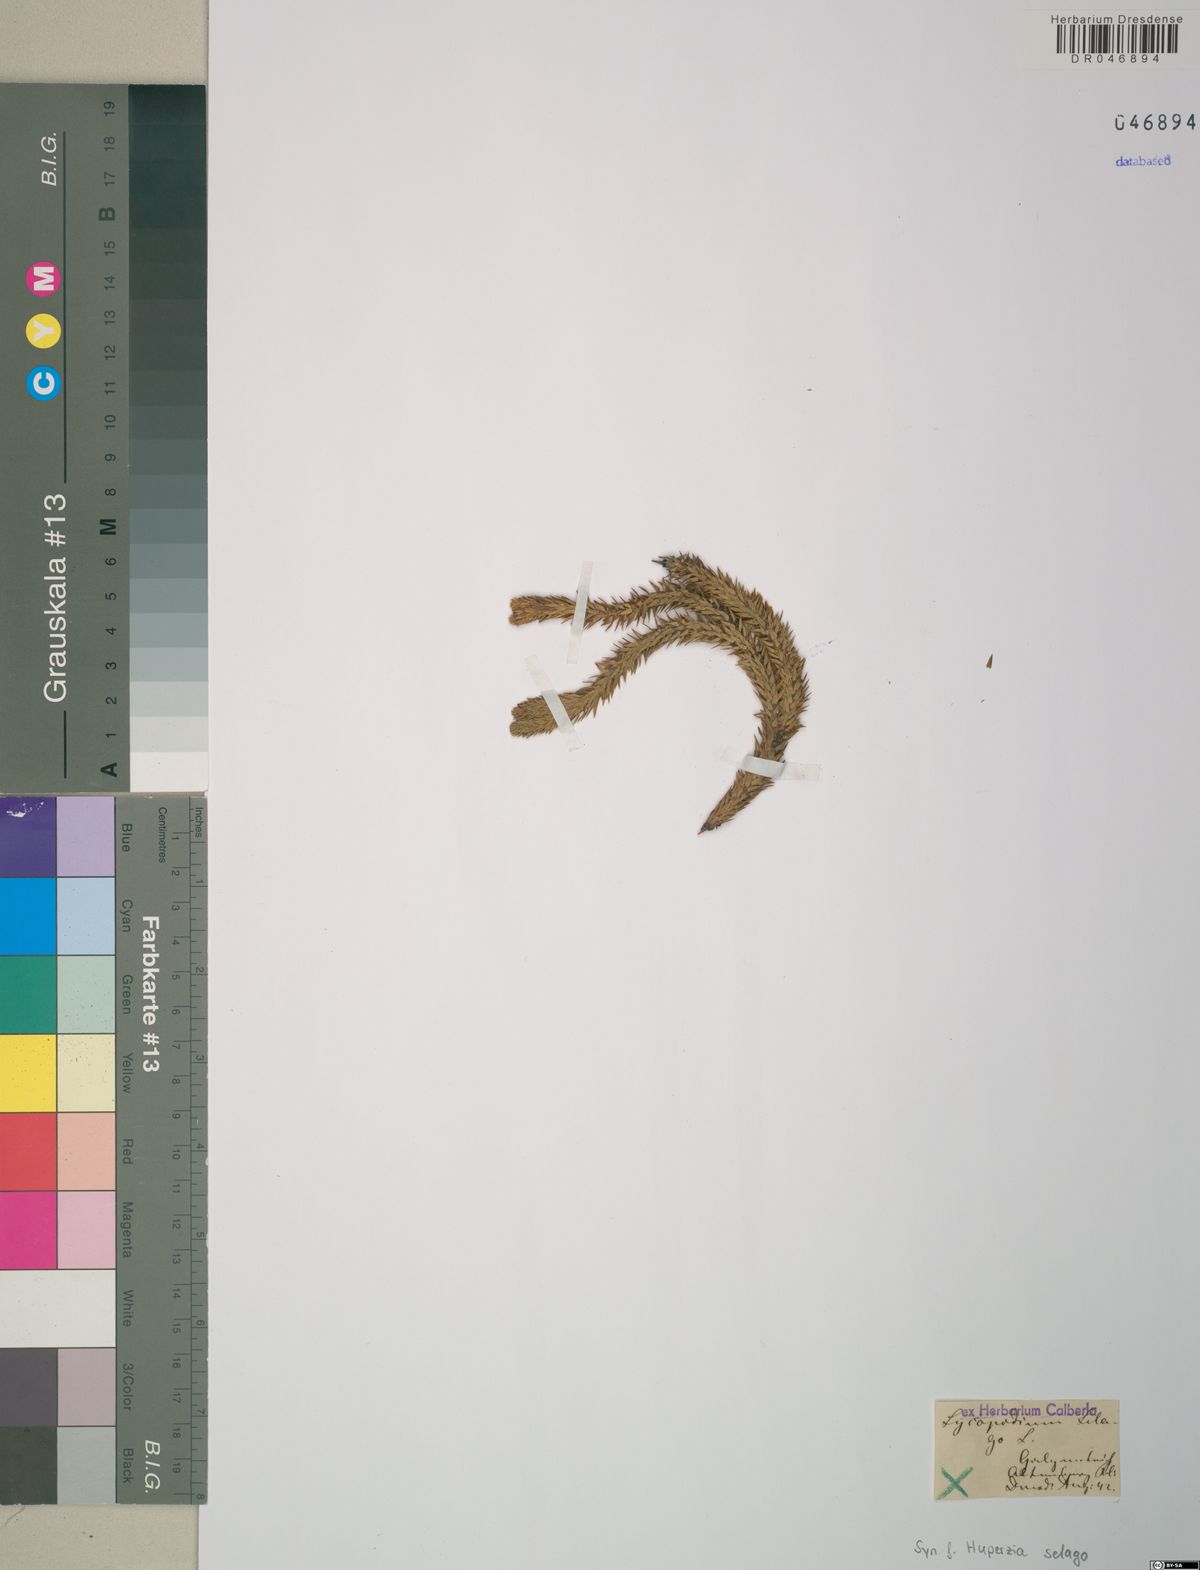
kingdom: Plantae
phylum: Tracheophyta
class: Lycopodiopsida
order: Lycopodiales
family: Lycopodiaceae
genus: Huperzia
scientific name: Huperzia selago
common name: Northern firmoss
